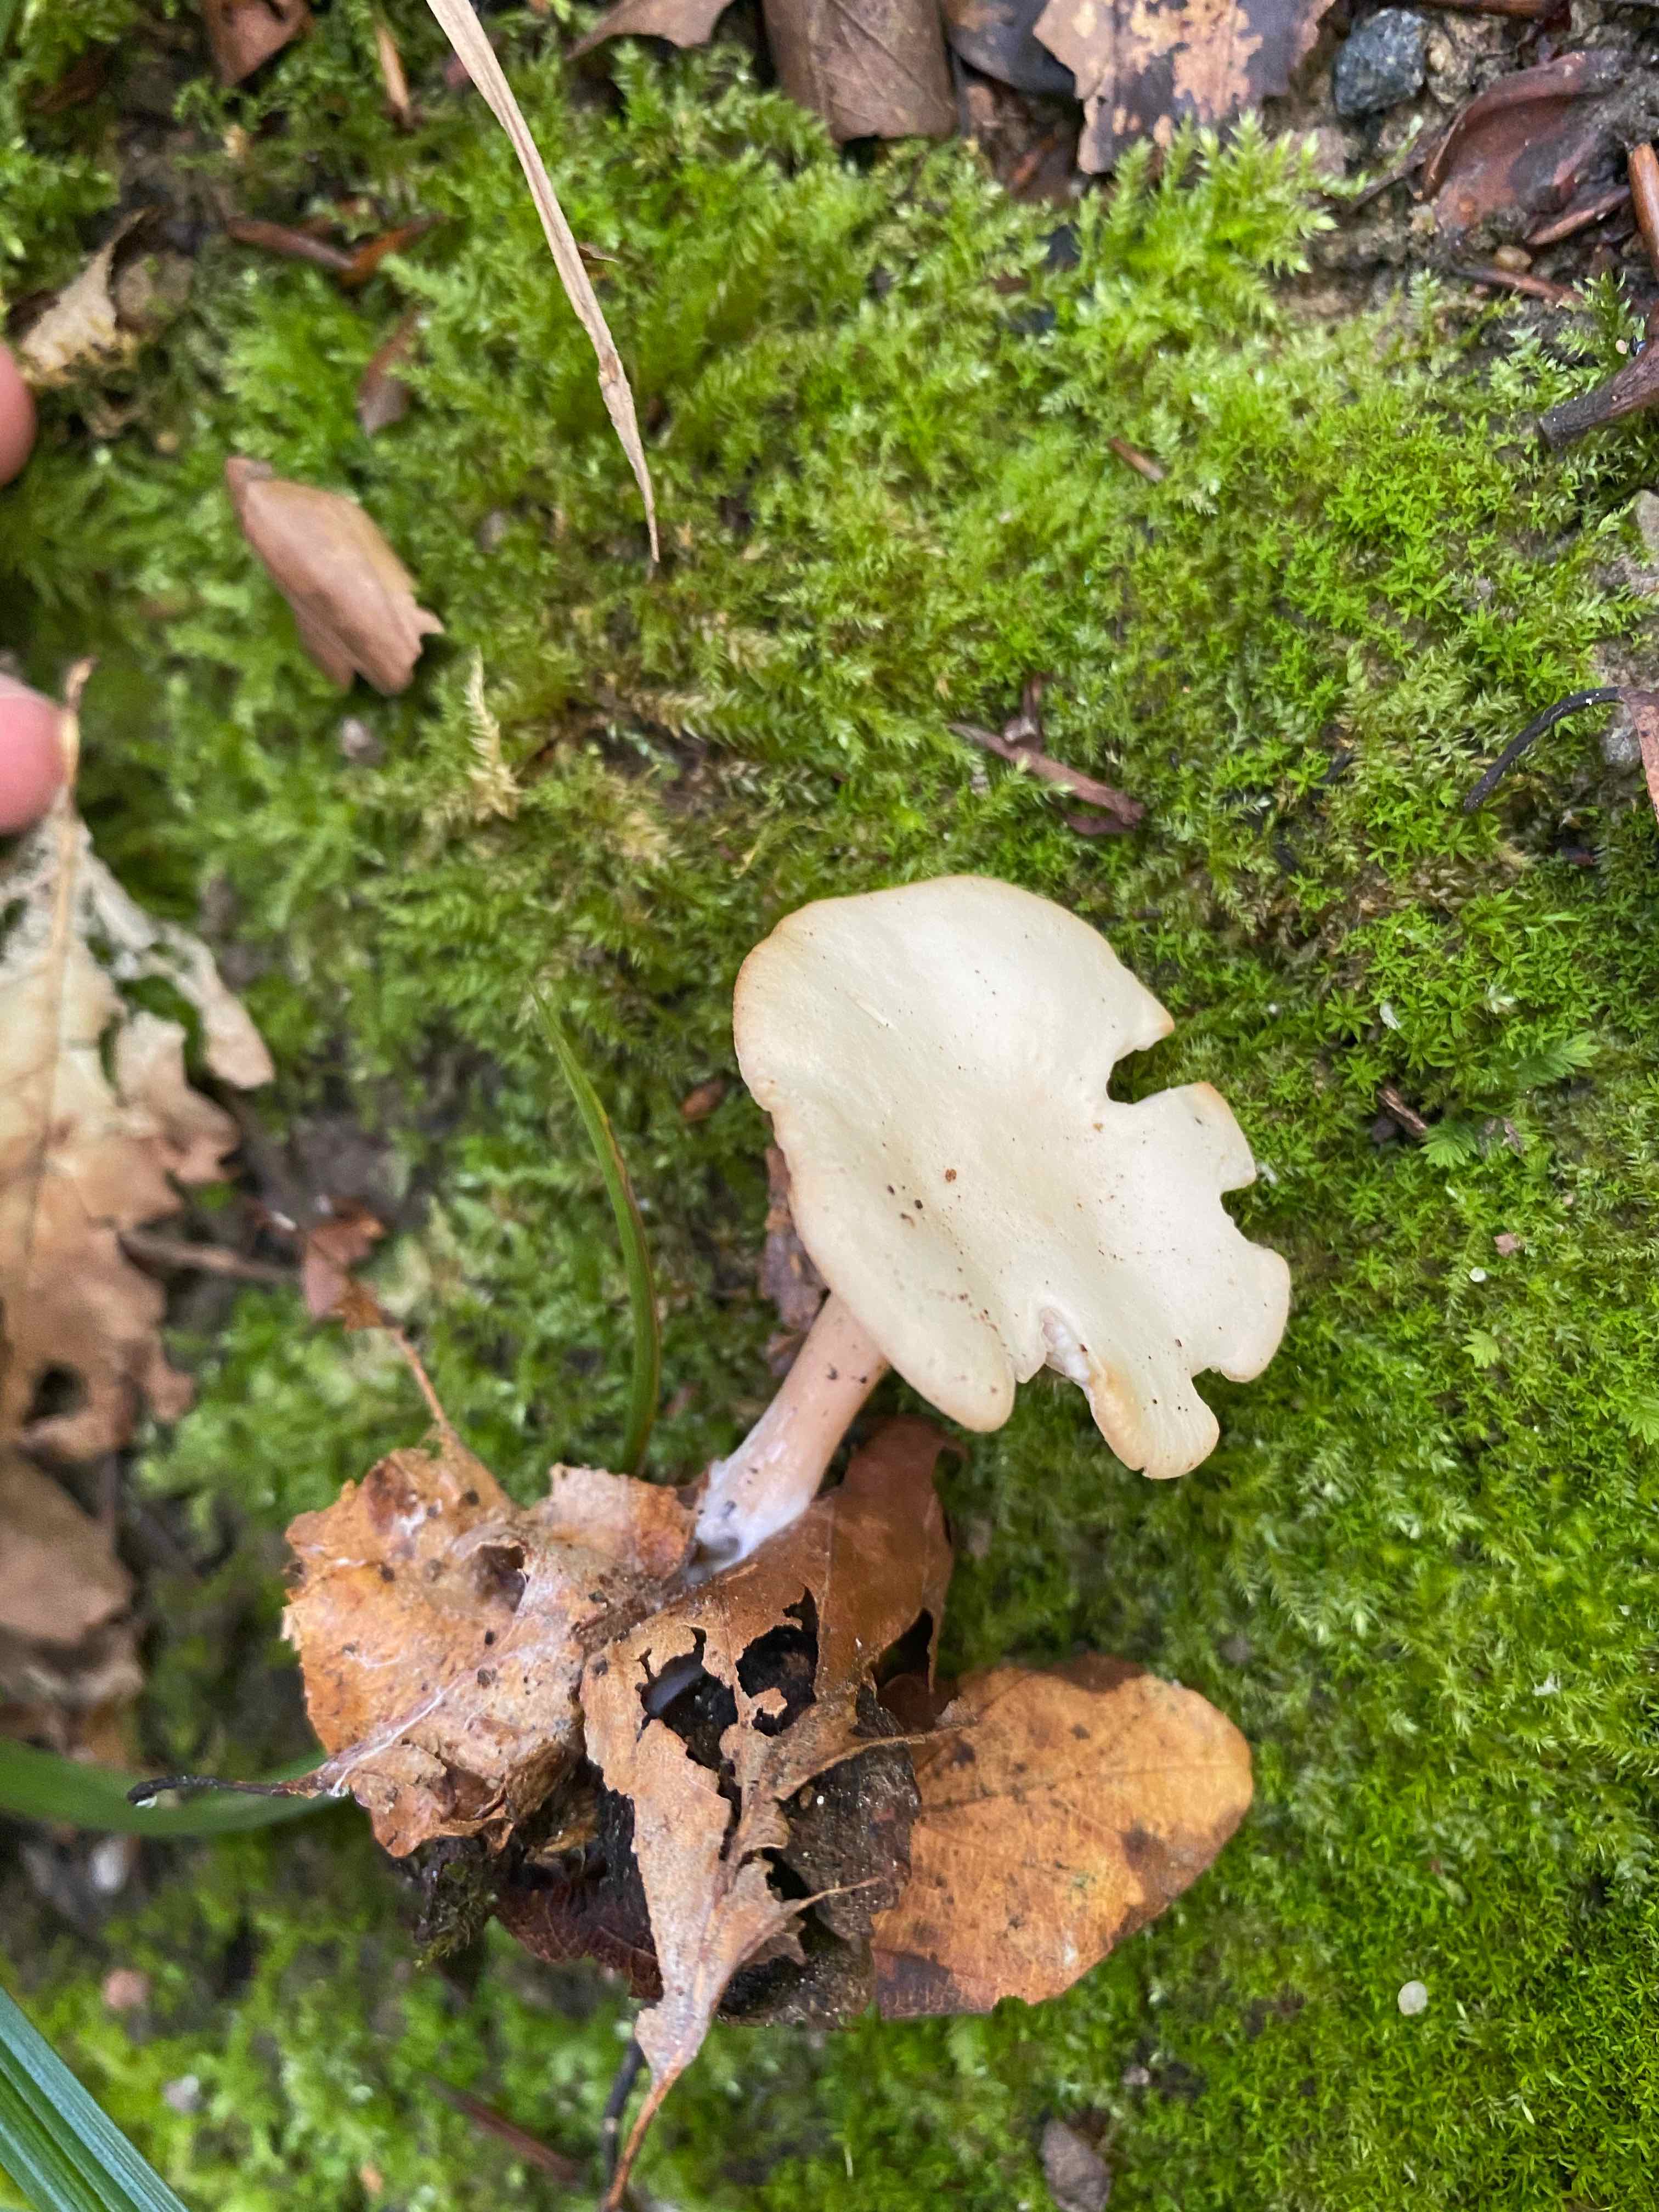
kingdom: Fungi
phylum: Basidiomycota
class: Agaricomycetes
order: Agaricales
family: Tricholomataceae
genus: Infundibulicybe
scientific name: Infundibulicybe
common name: tragthat
